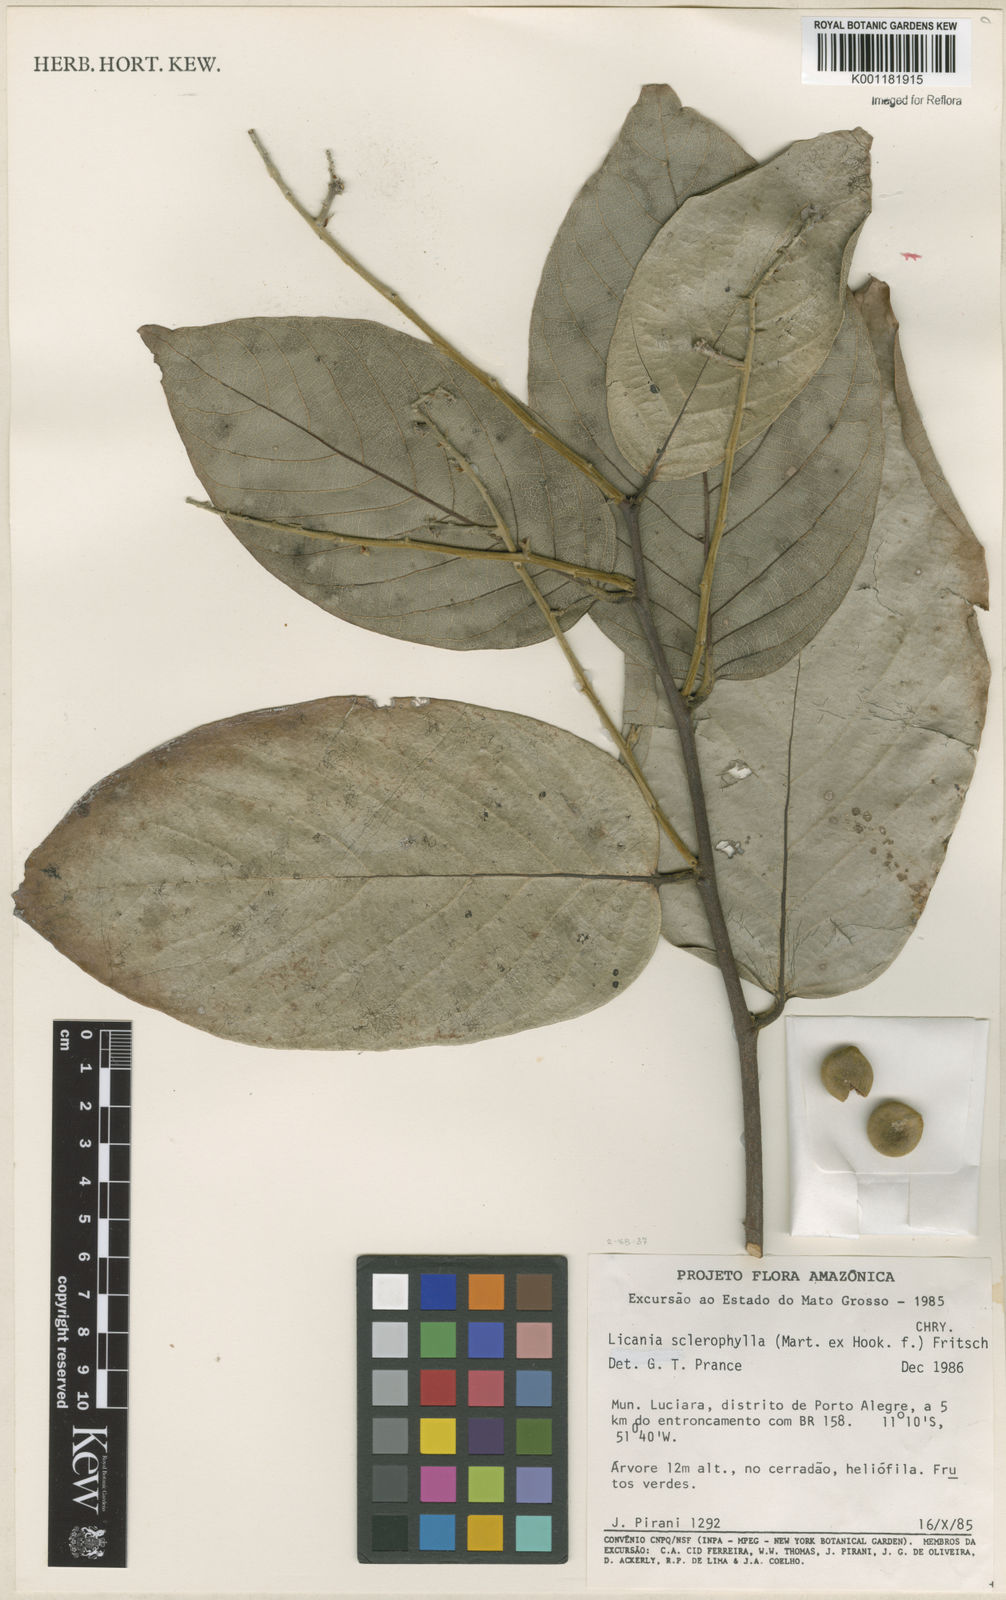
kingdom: Plantae
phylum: Tracheophyta
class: Magnoliopsida
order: Malpighiales
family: Chrysobalanaceae
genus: Leptobalanus
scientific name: Leptobalanus sclerophyllus
